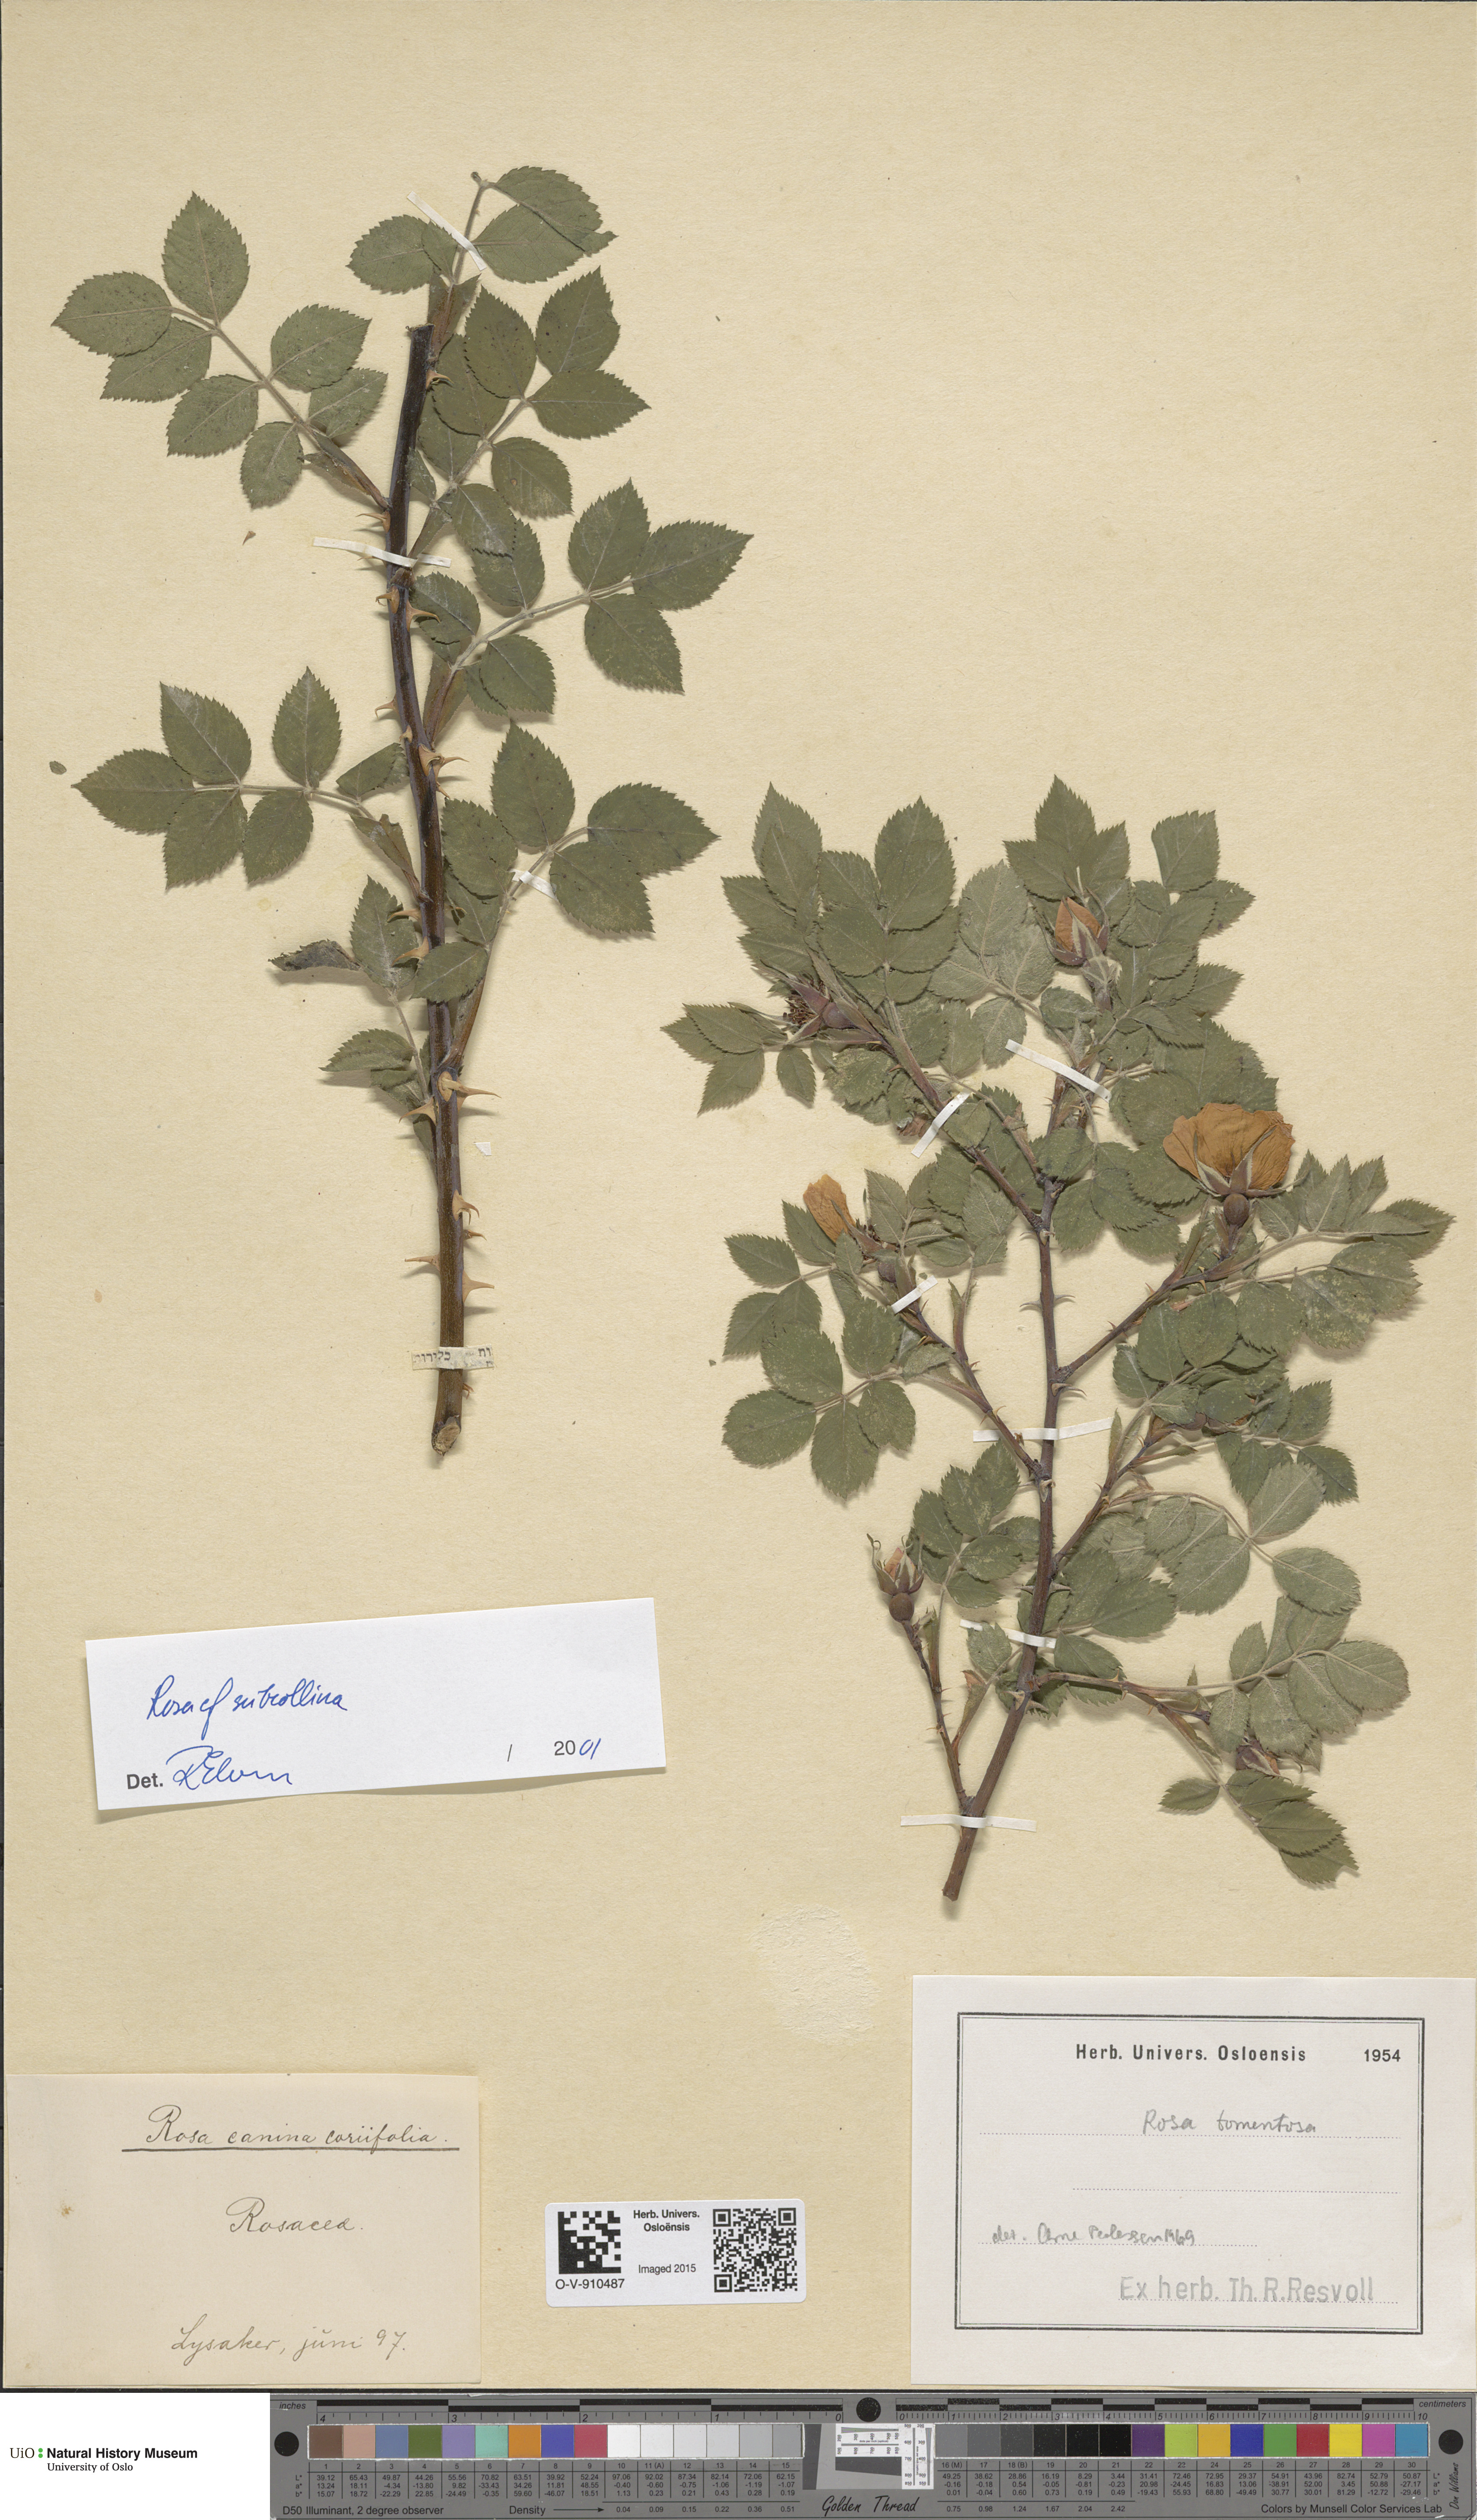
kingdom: Plantae
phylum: Tracheophyta
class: Magnoliopsida
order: Rosales
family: Rosaceae
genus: Rosa
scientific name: Rosa subcollina
